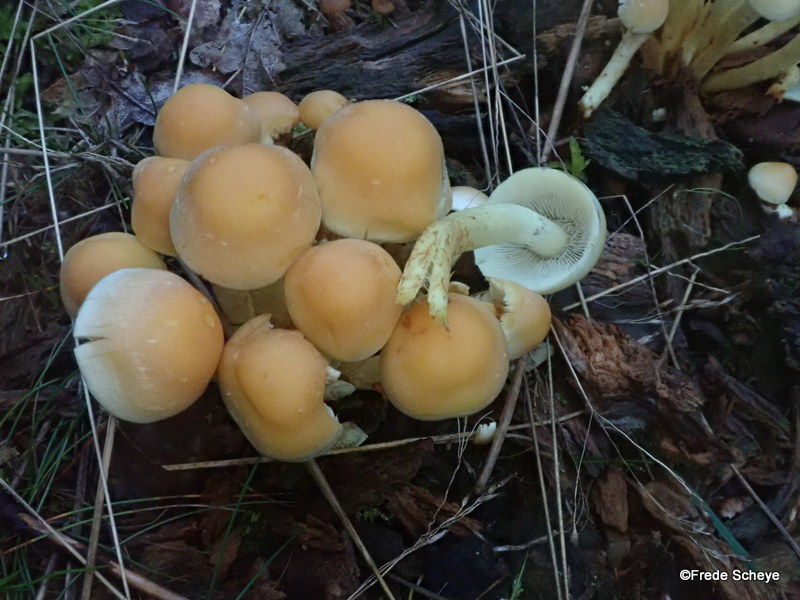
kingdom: Fungi
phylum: Basidiomycota
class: Agaricomycetes
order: Agaricales
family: Strophariaceae
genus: Hypholoma
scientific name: Hypholoma fasciculare
